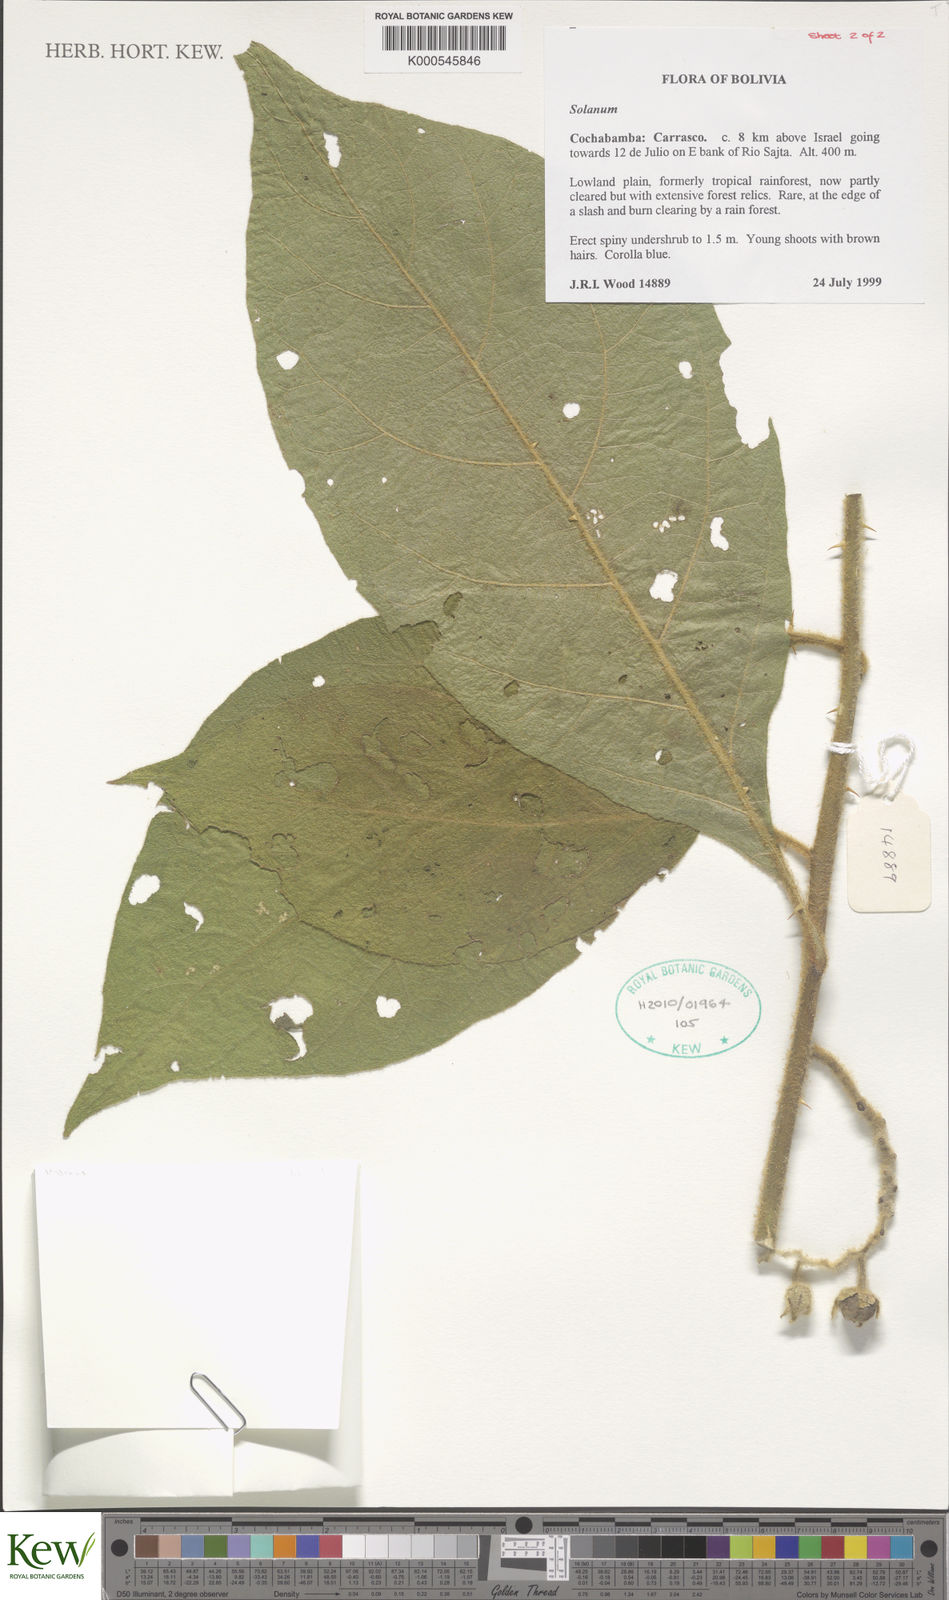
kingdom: Plantae
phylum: Tracheophyta
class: Magnoliopsida
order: Solanales
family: Solanaceae
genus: Solanum
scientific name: Solanum
